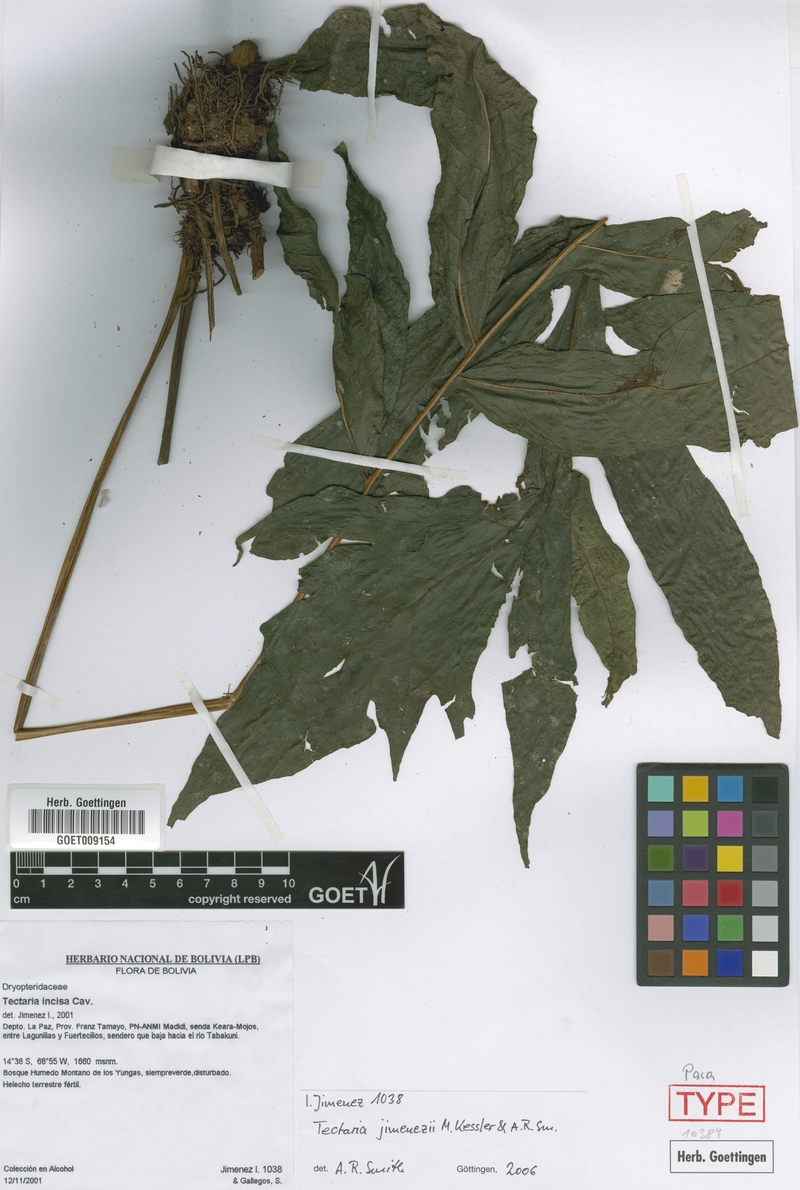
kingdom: Plantae
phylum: Tracheophyta
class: Polypodiopsida
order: Polypodiales
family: Tectariaceae
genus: Tectaria
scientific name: Tectaria jimenezii
